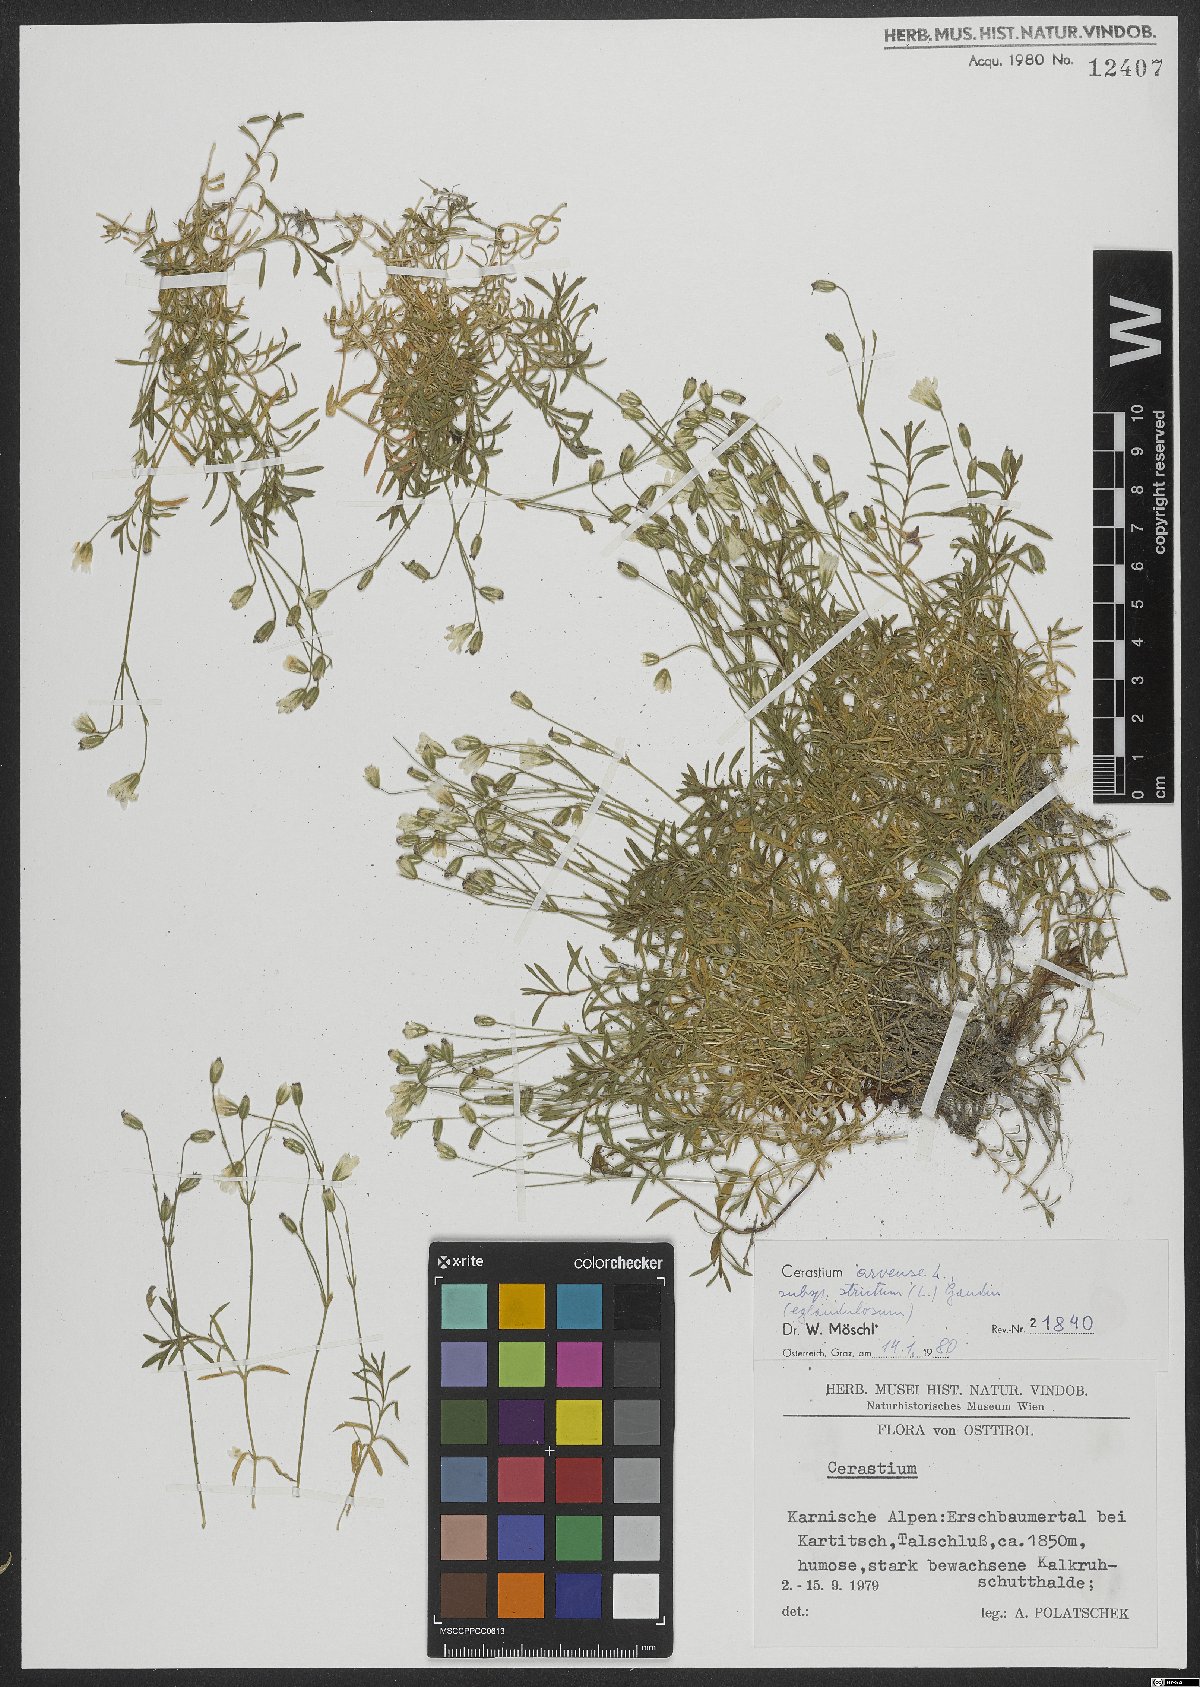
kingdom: Plantae
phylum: Tracheophyta
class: Magnoliopsida
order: Caryophyllales
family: Caryophyllaceae
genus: Cerastium
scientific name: Cerastium elongatum
